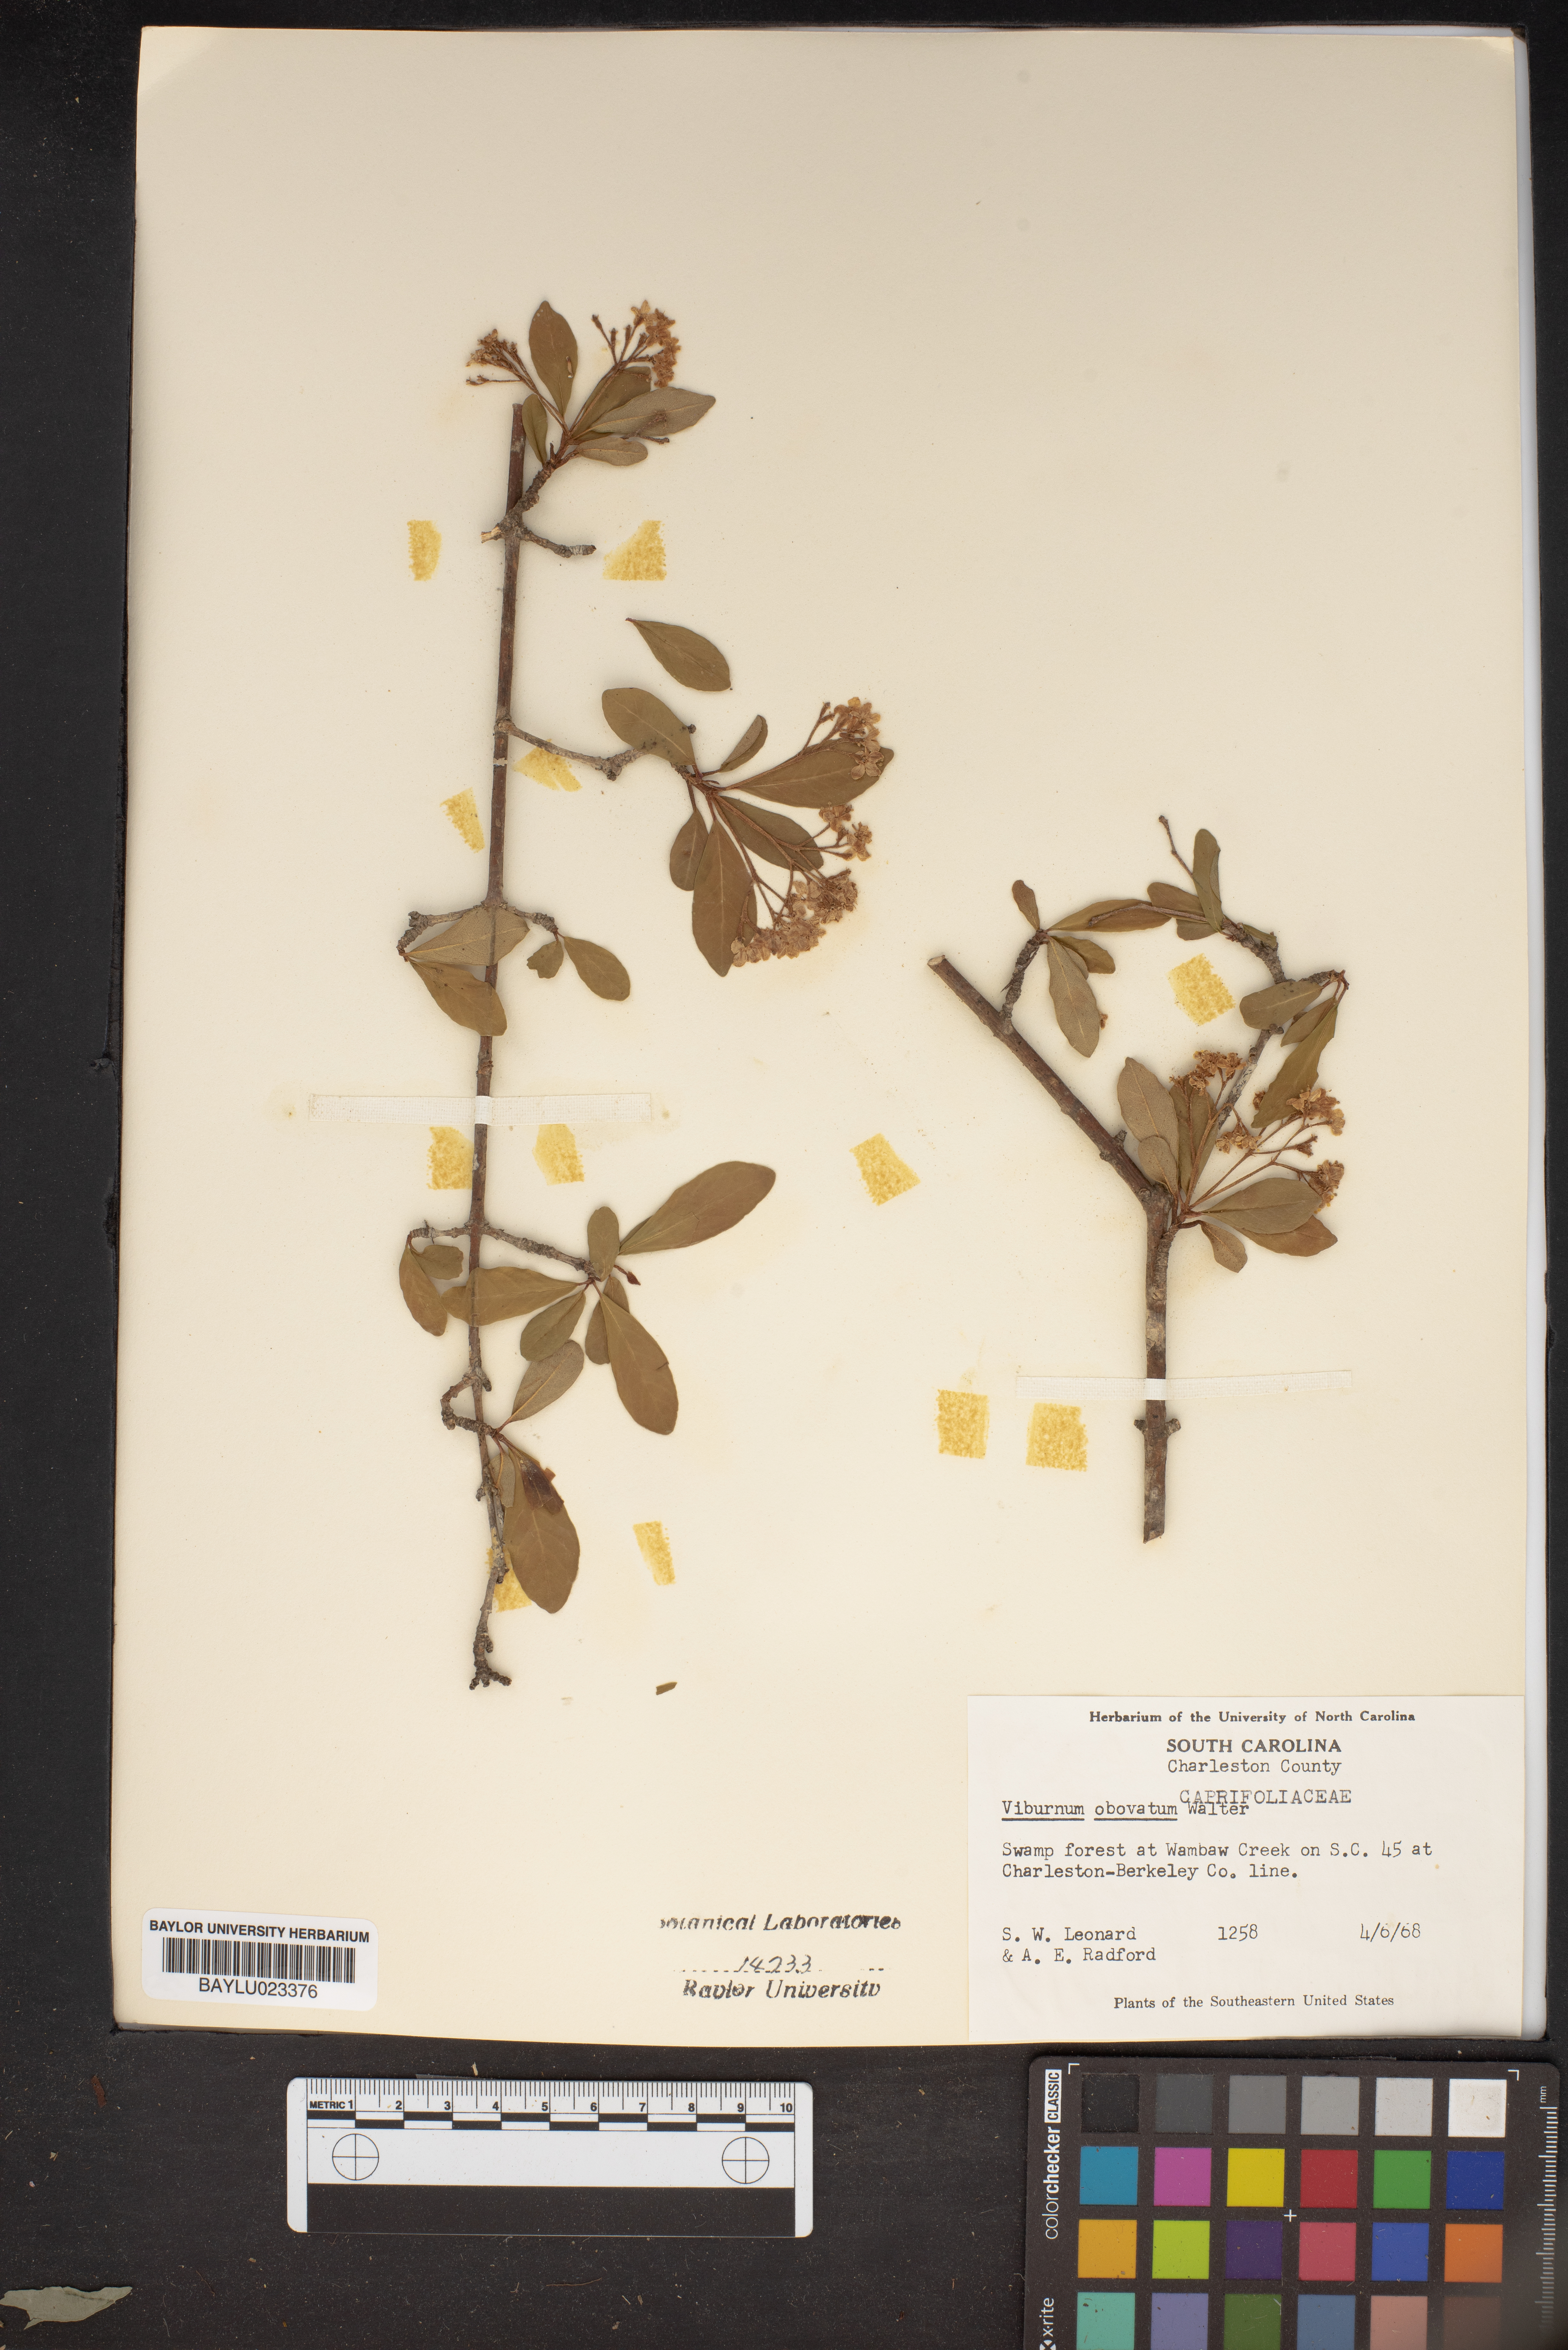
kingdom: Plantae
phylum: Tracheophyta
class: Magnoliopsida
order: Dipsacales
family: Viburnaceae
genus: Viburnum
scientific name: Viburnum obovatum
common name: Walter's viburnum
